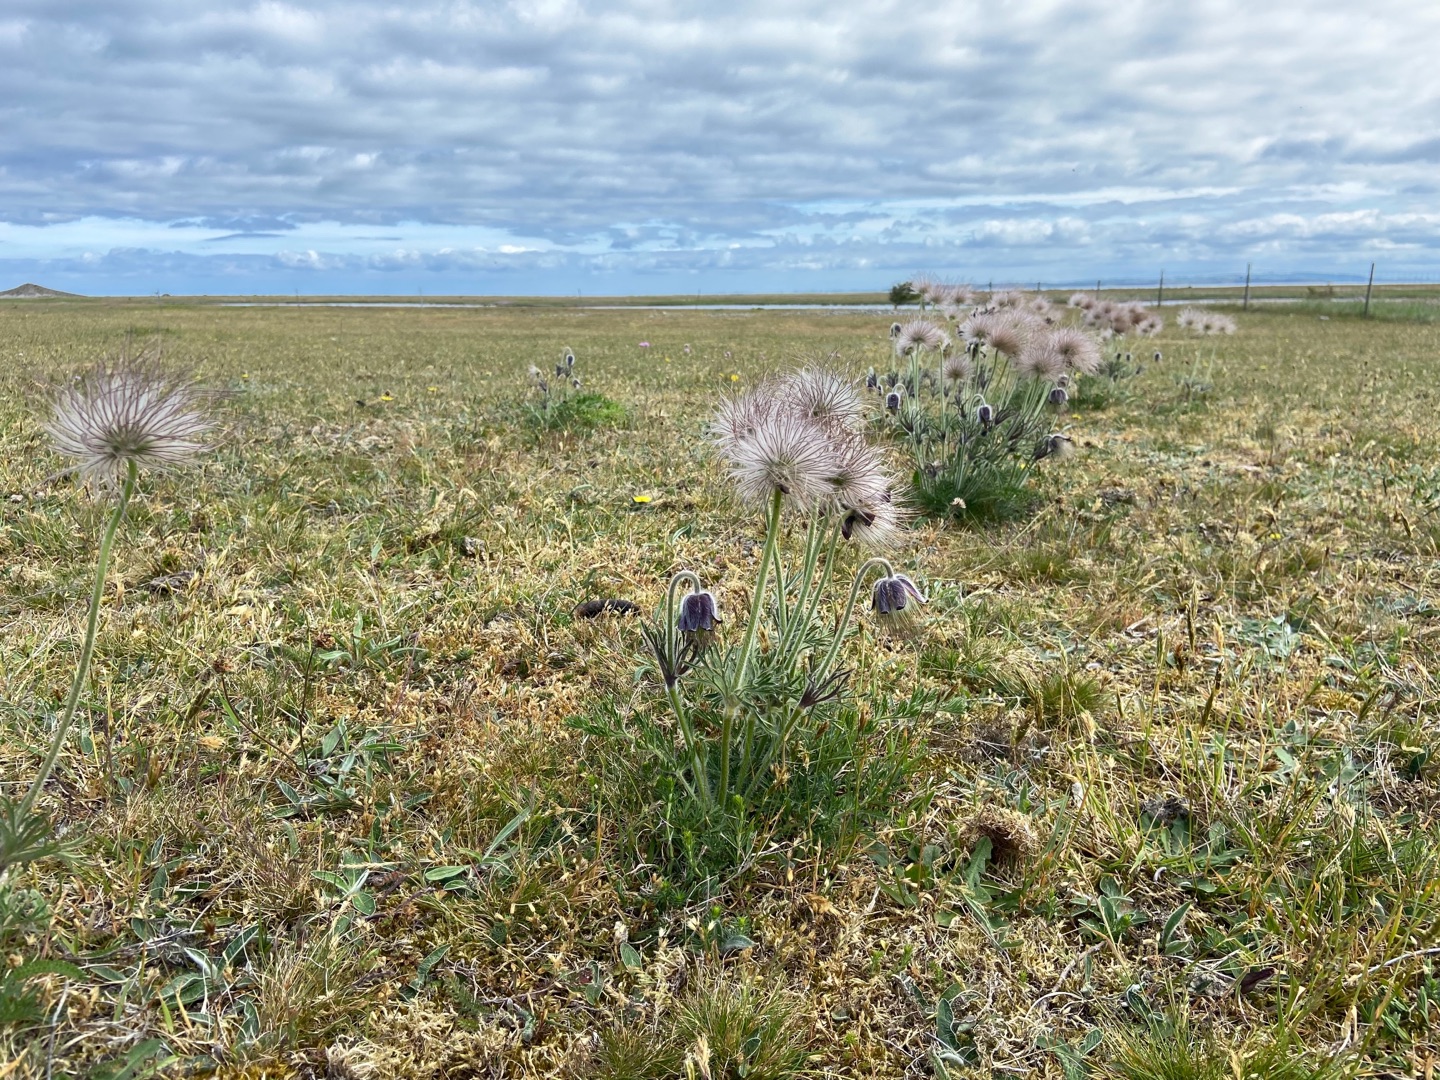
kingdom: Plantae
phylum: Tracheophyta
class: Magnoliopsida
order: Ranunculales
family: Ranunculaceae
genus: Pulsatilla
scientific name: Pulsatilla pratensis
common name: Nikkende kobjælde
